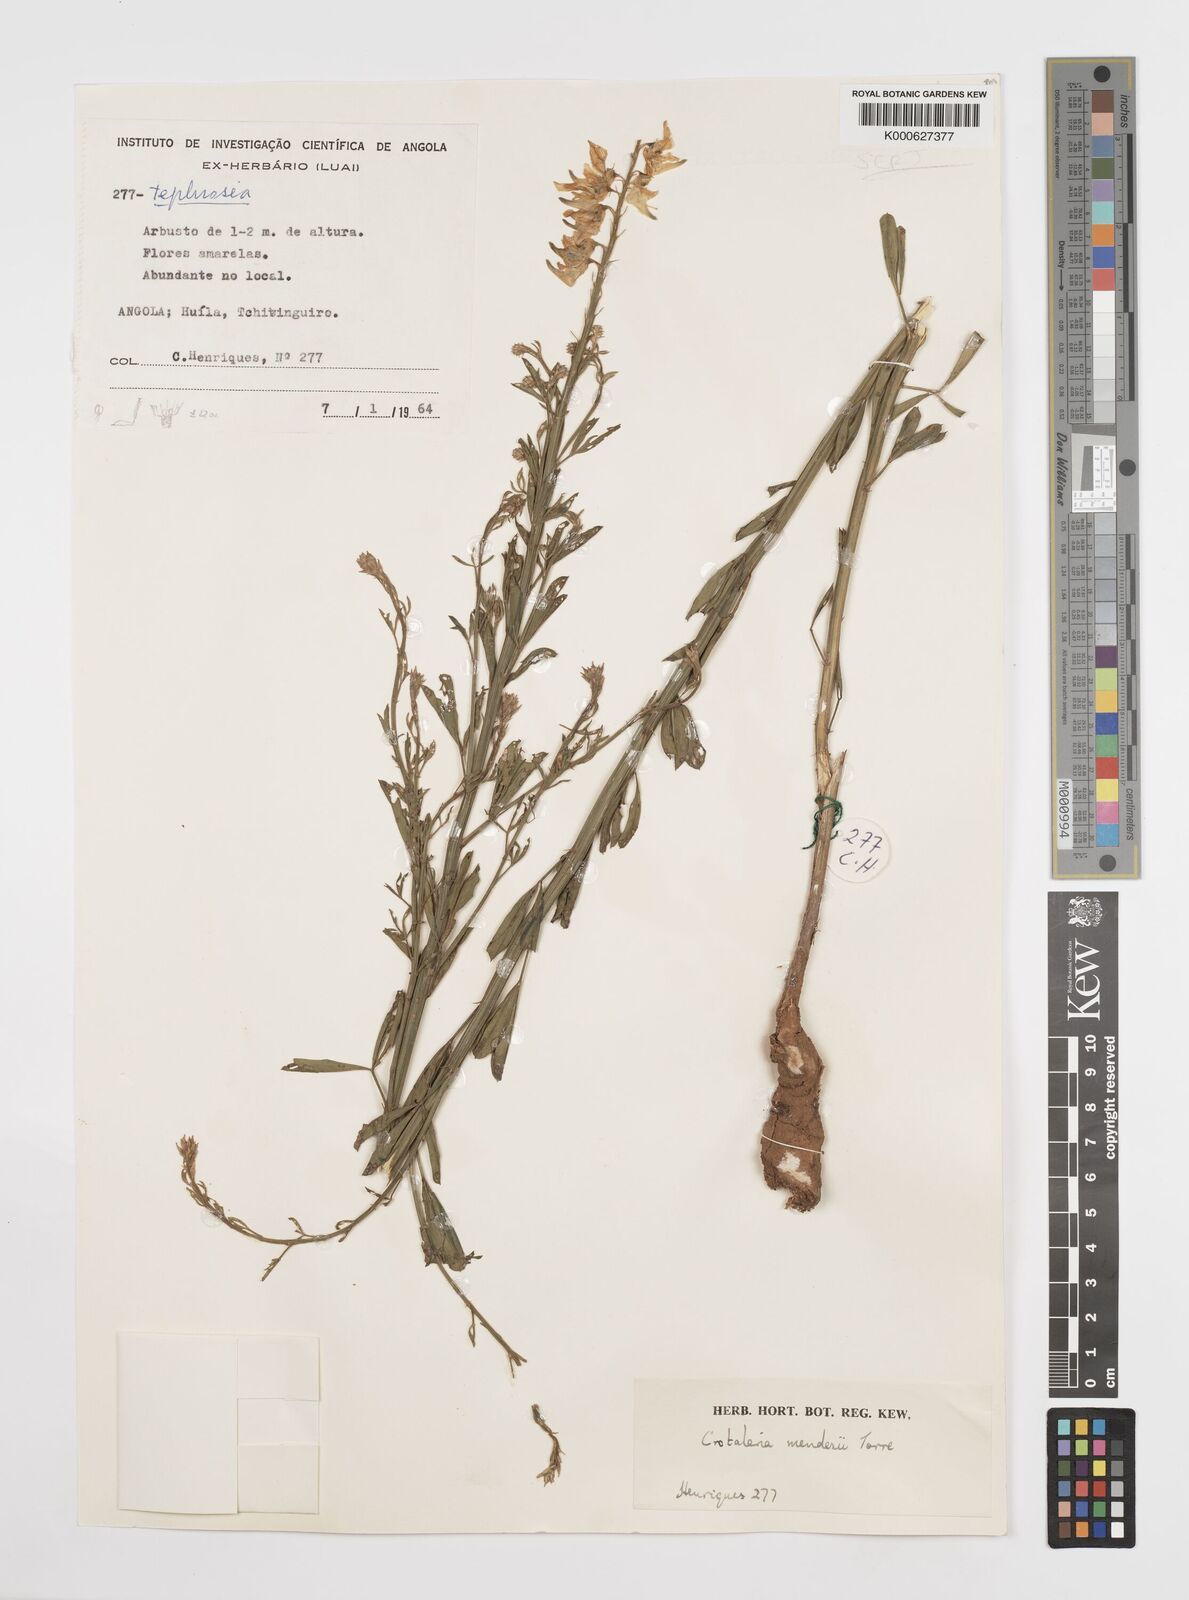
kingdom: Plantae
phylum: Tracheophyta
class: Magnoliopsida
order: Fabales
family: Fabaceae
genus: Crotalaria
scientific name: Crotalaria mendesii
